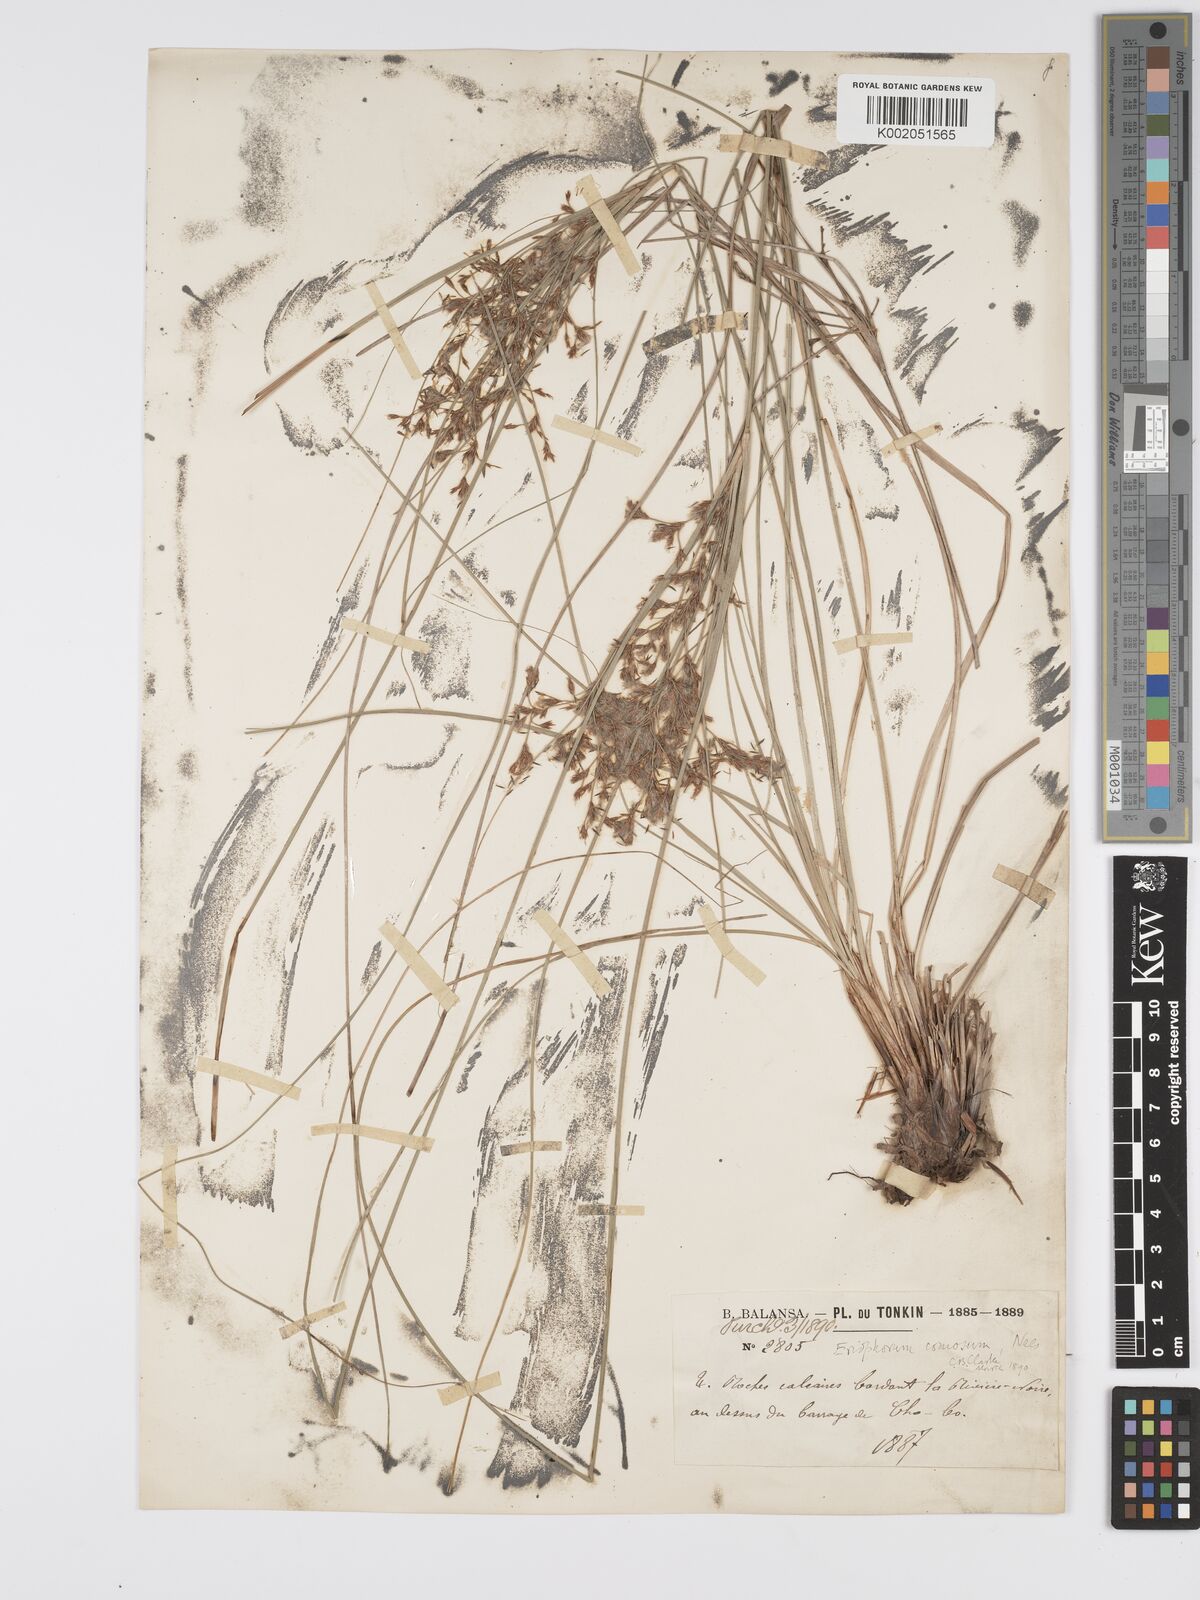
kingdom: Plantae
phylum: Tracheophyta
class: Liliopsida
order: Poales
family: Cyperaceae
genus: Erioscirpus
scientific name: Erioscirpus comosus
